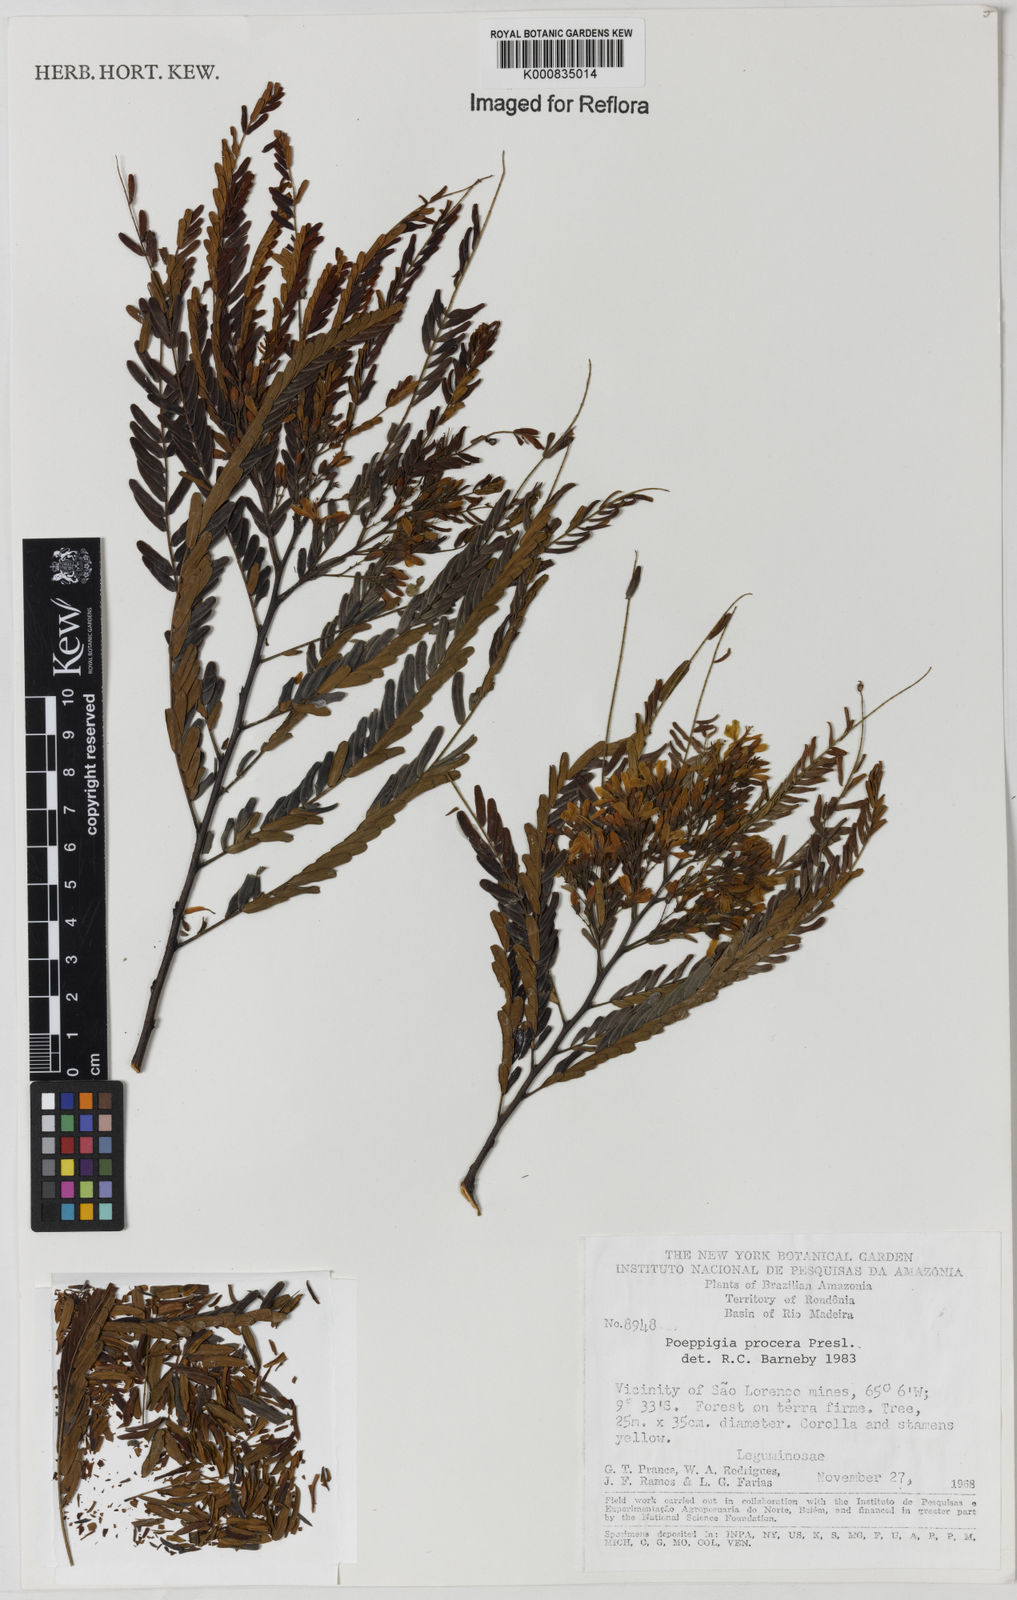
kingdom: Plantae
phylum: Tracheophyta
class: Magnoliopsida
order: Fabales
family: Fabaceae
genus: Poeppigia
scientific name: Poeppigia procera
